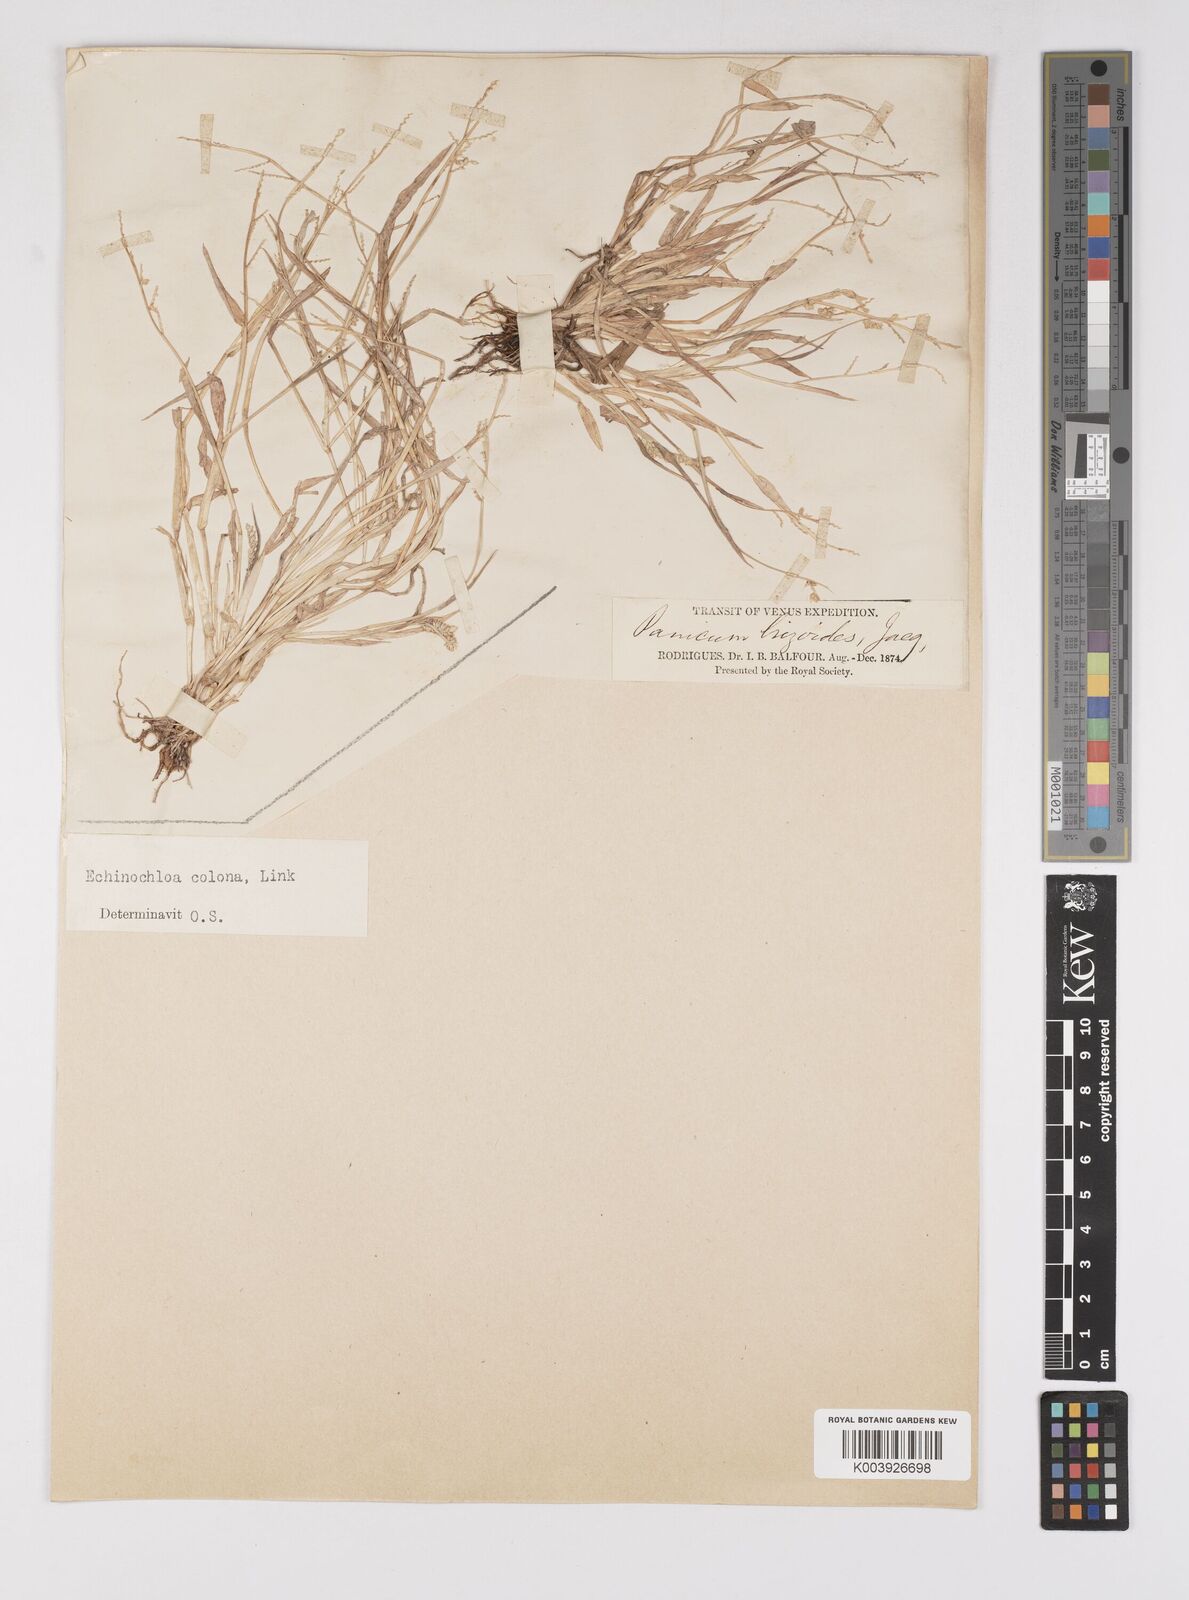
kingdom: Plantae
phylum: Tracheophyta
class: Liliopsida
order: Poales
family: Poaceae
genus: Echinochloa
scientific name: Echinochloa colonum
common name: Jungle rice
